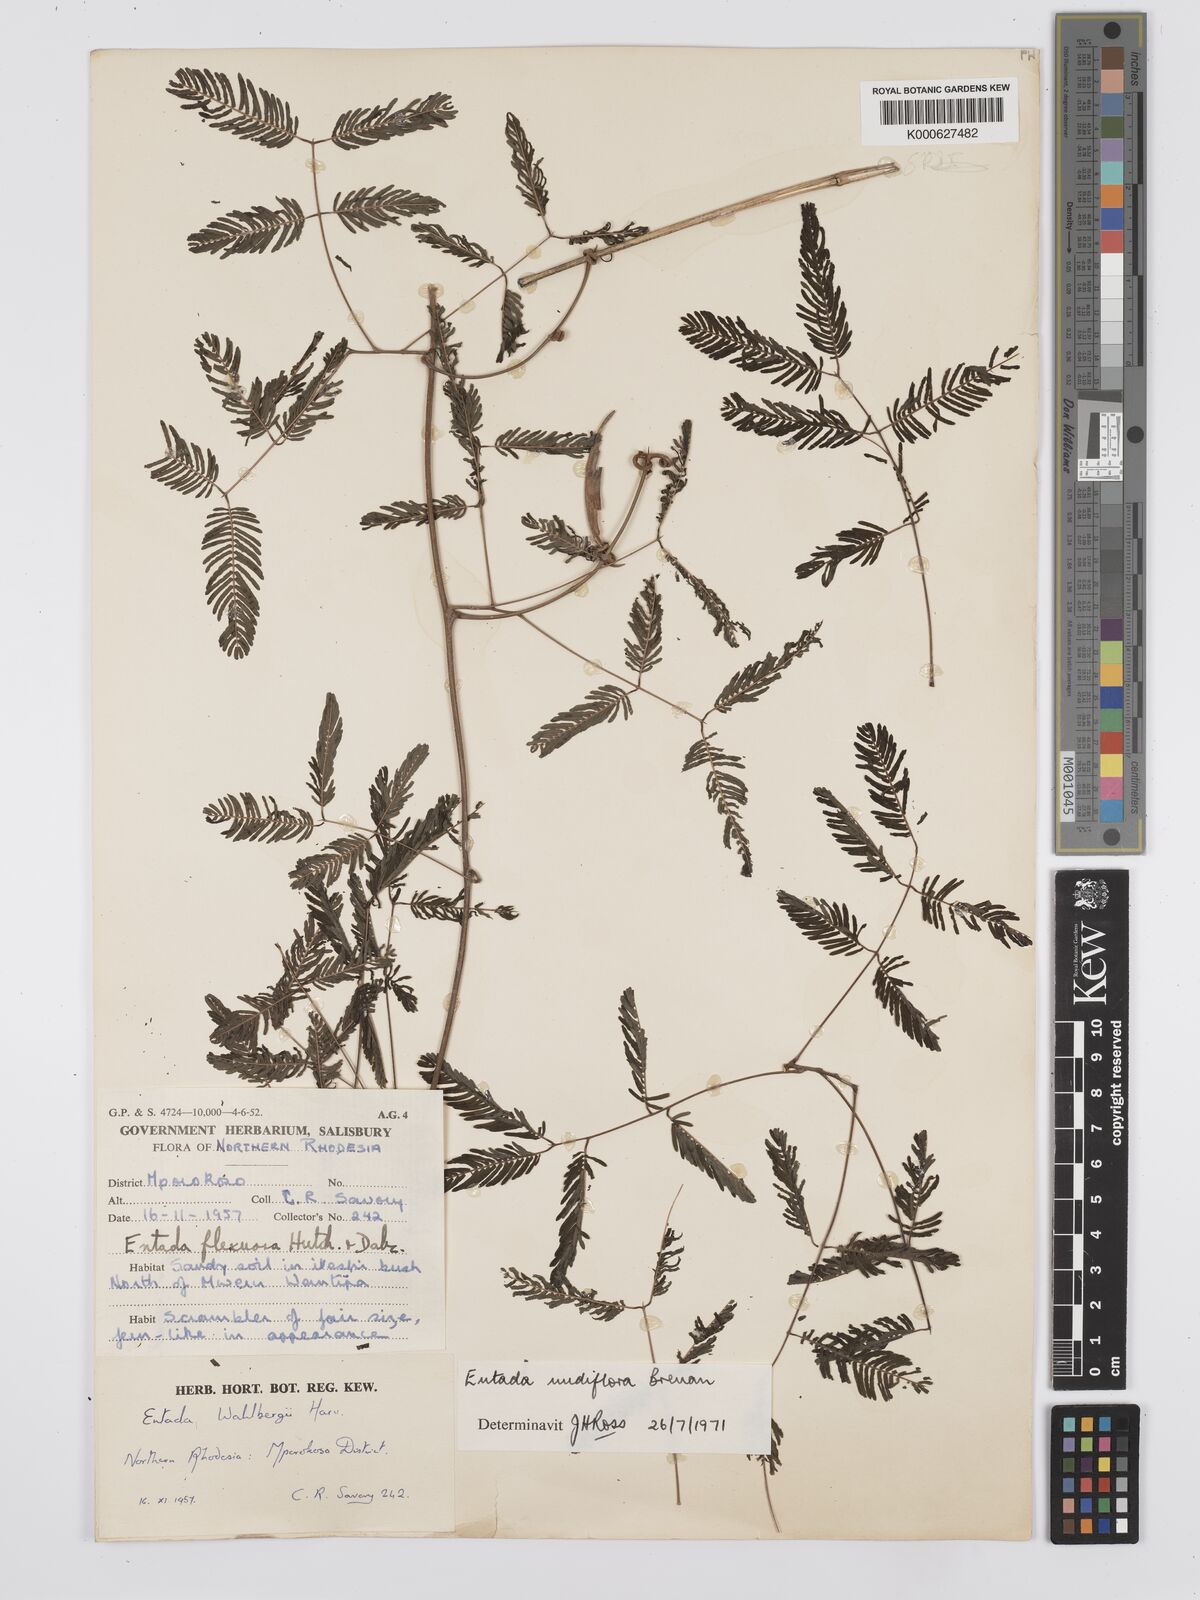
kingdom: Plantae
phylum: Tracheophyta
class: Magnoliopsida
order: Fabales
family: Fabaceae
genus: Entada
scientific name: Entada nudiflora
